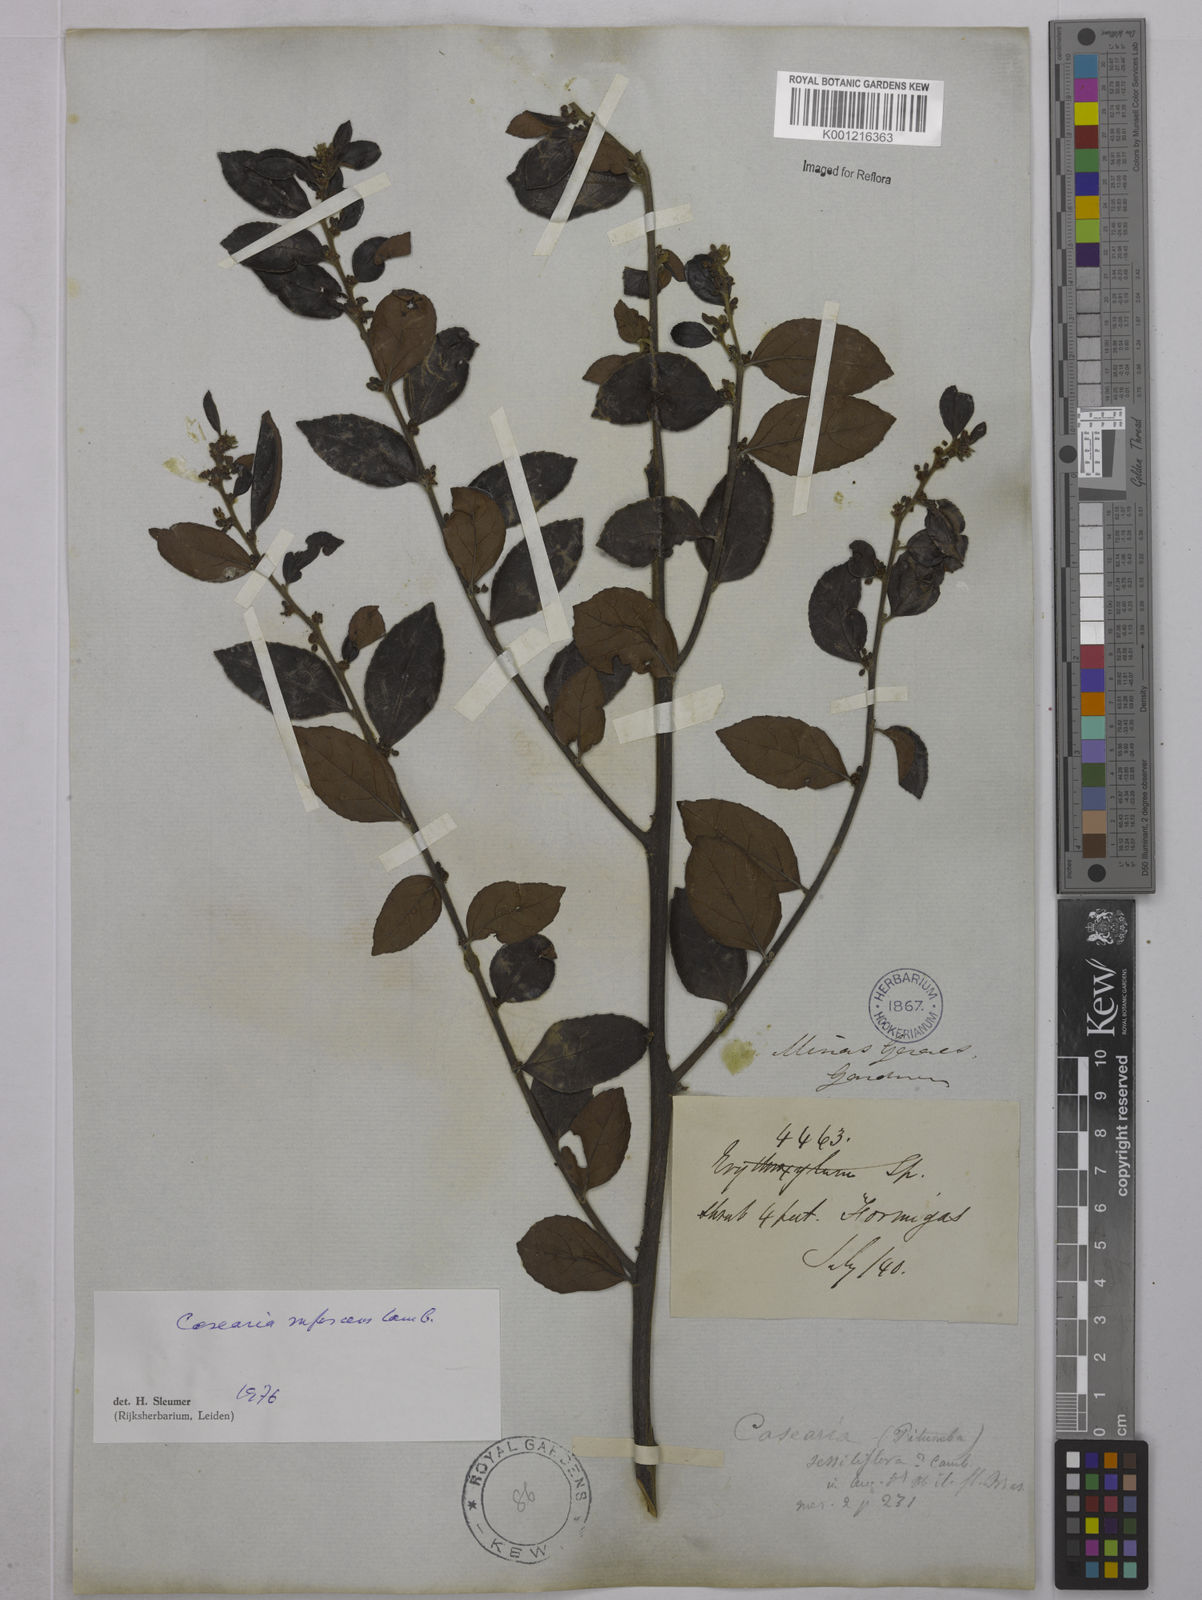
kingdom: Plantae
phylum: Tracheophyta
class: Magnoliopsida
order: Malpighiales
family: Salicaceae
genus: Casearia
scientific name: Casearia rufescens
